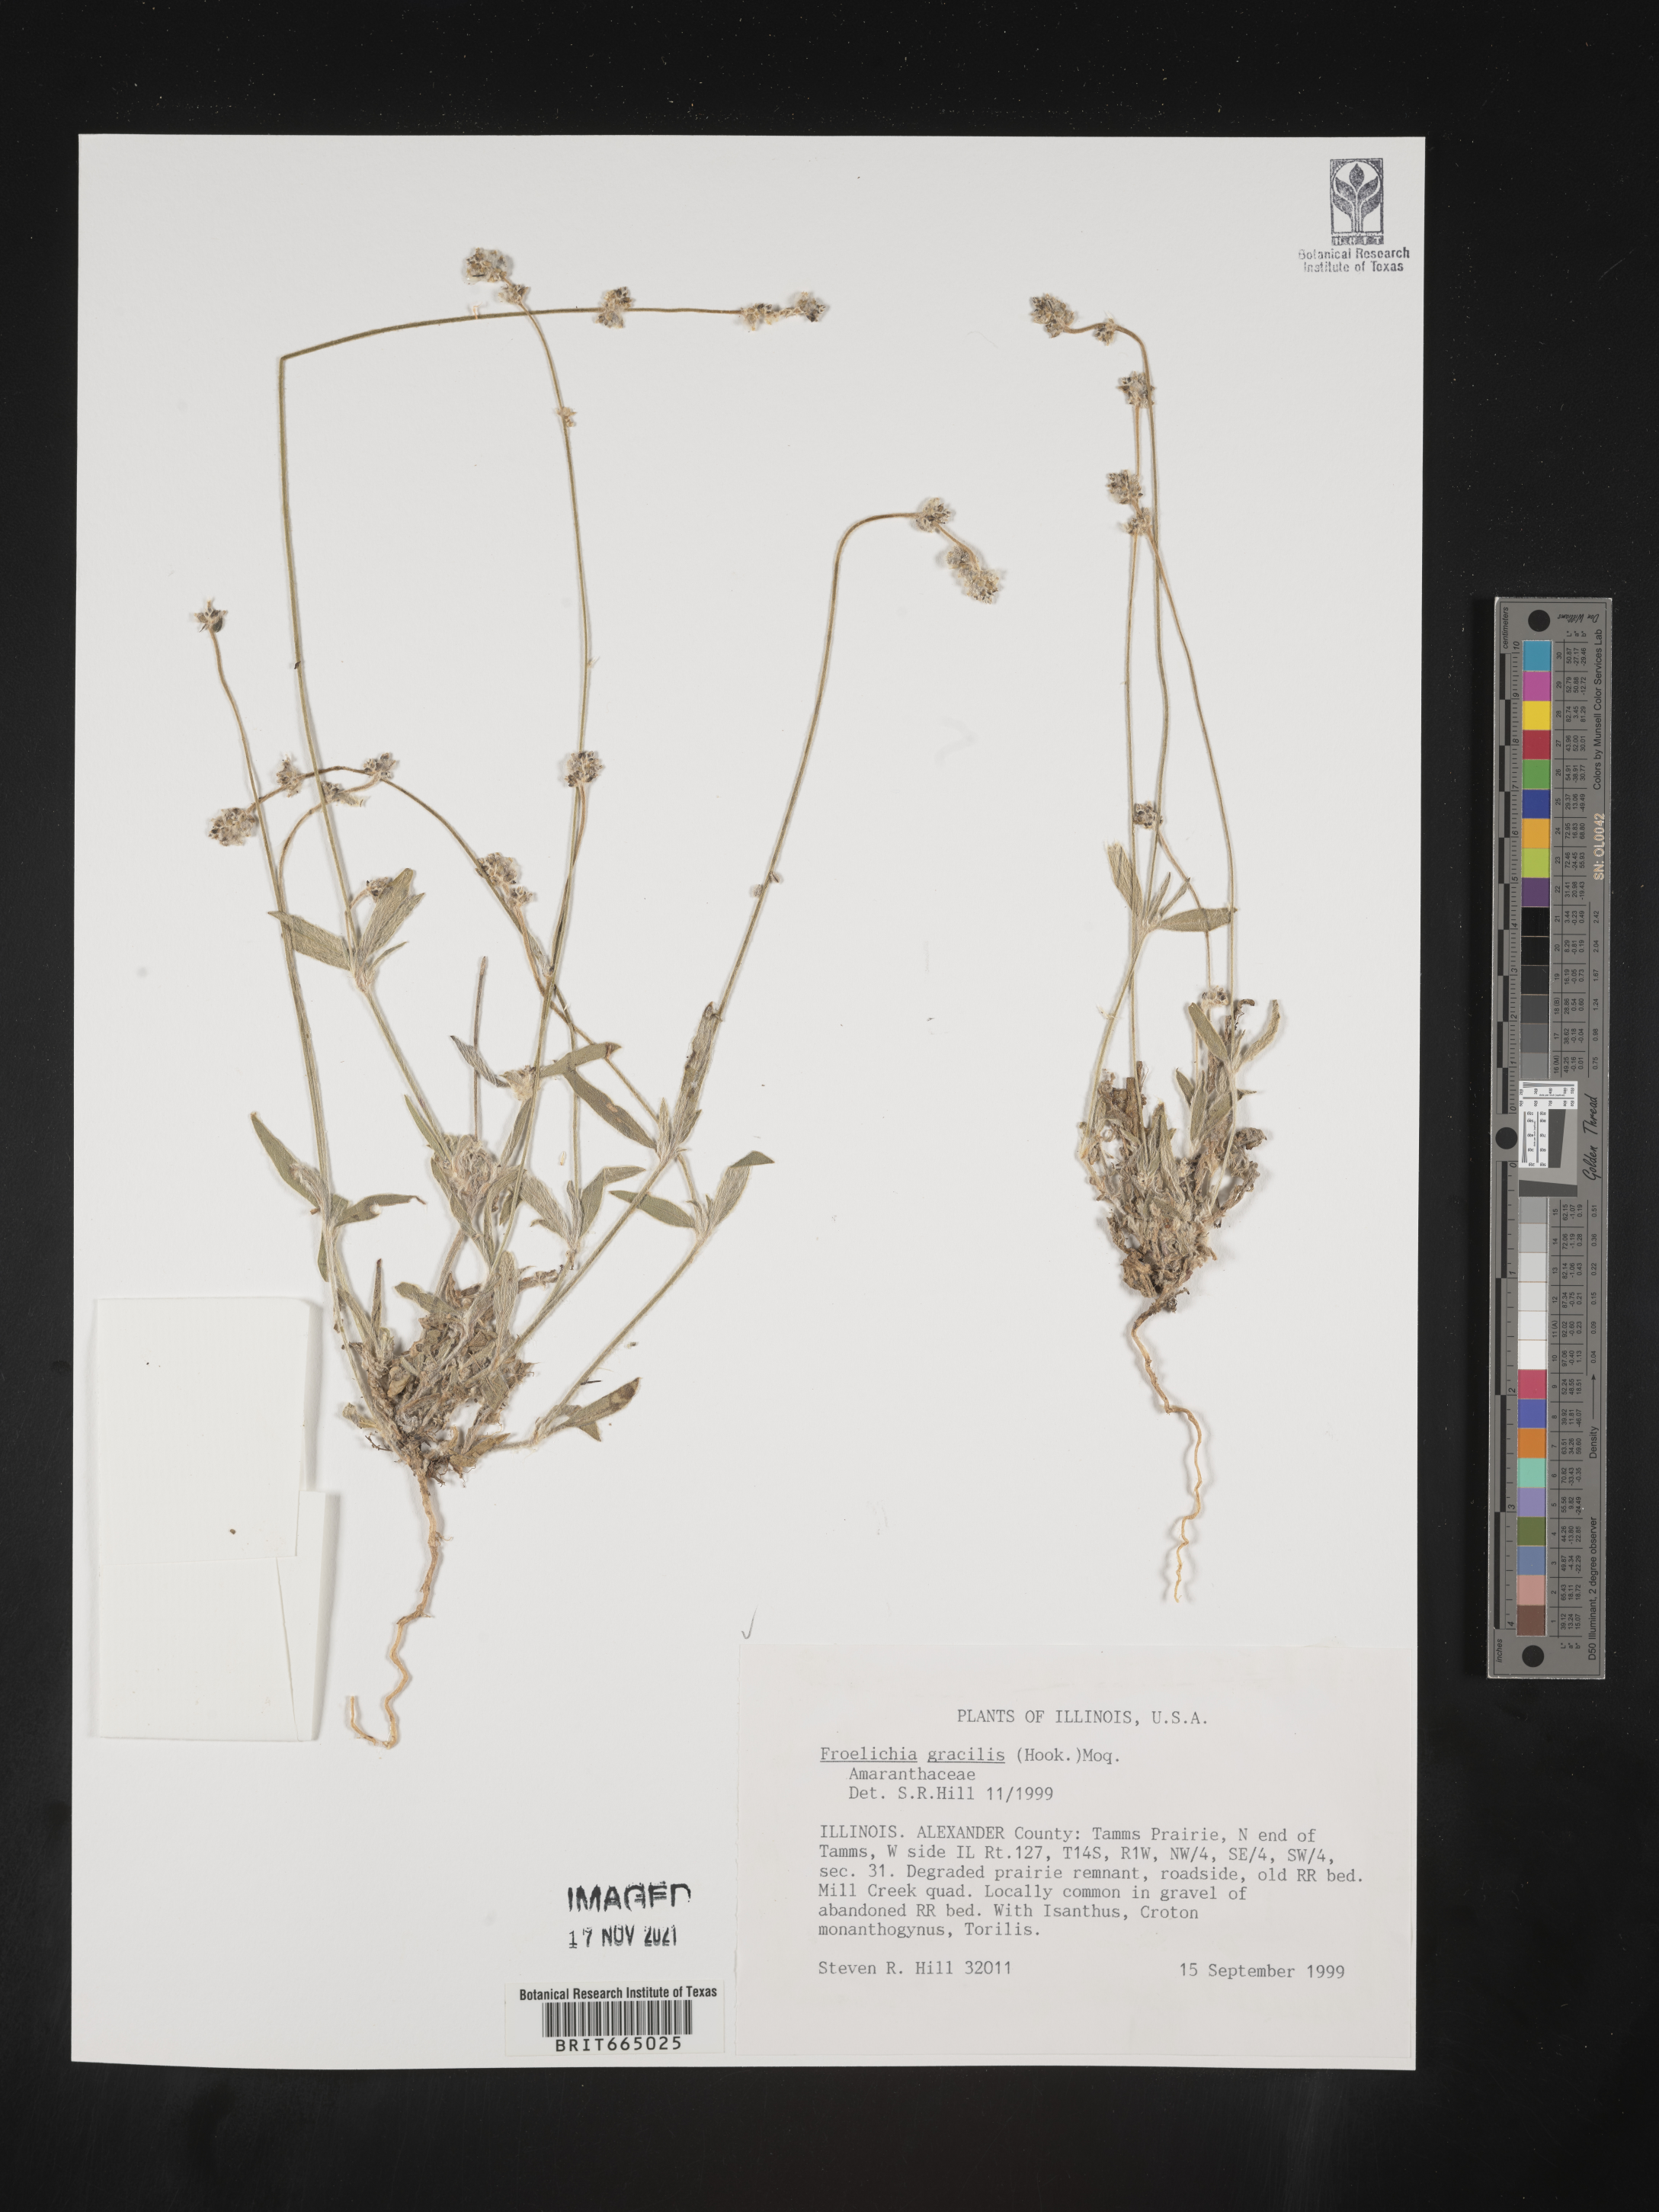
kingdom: Plantae
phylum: Tracheophyta
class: Magnoliopsida
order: Caryophyllales
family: Amaranthaceae
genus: Froelichia
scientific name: Froelichia gracilis
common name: Slender cottonweed
